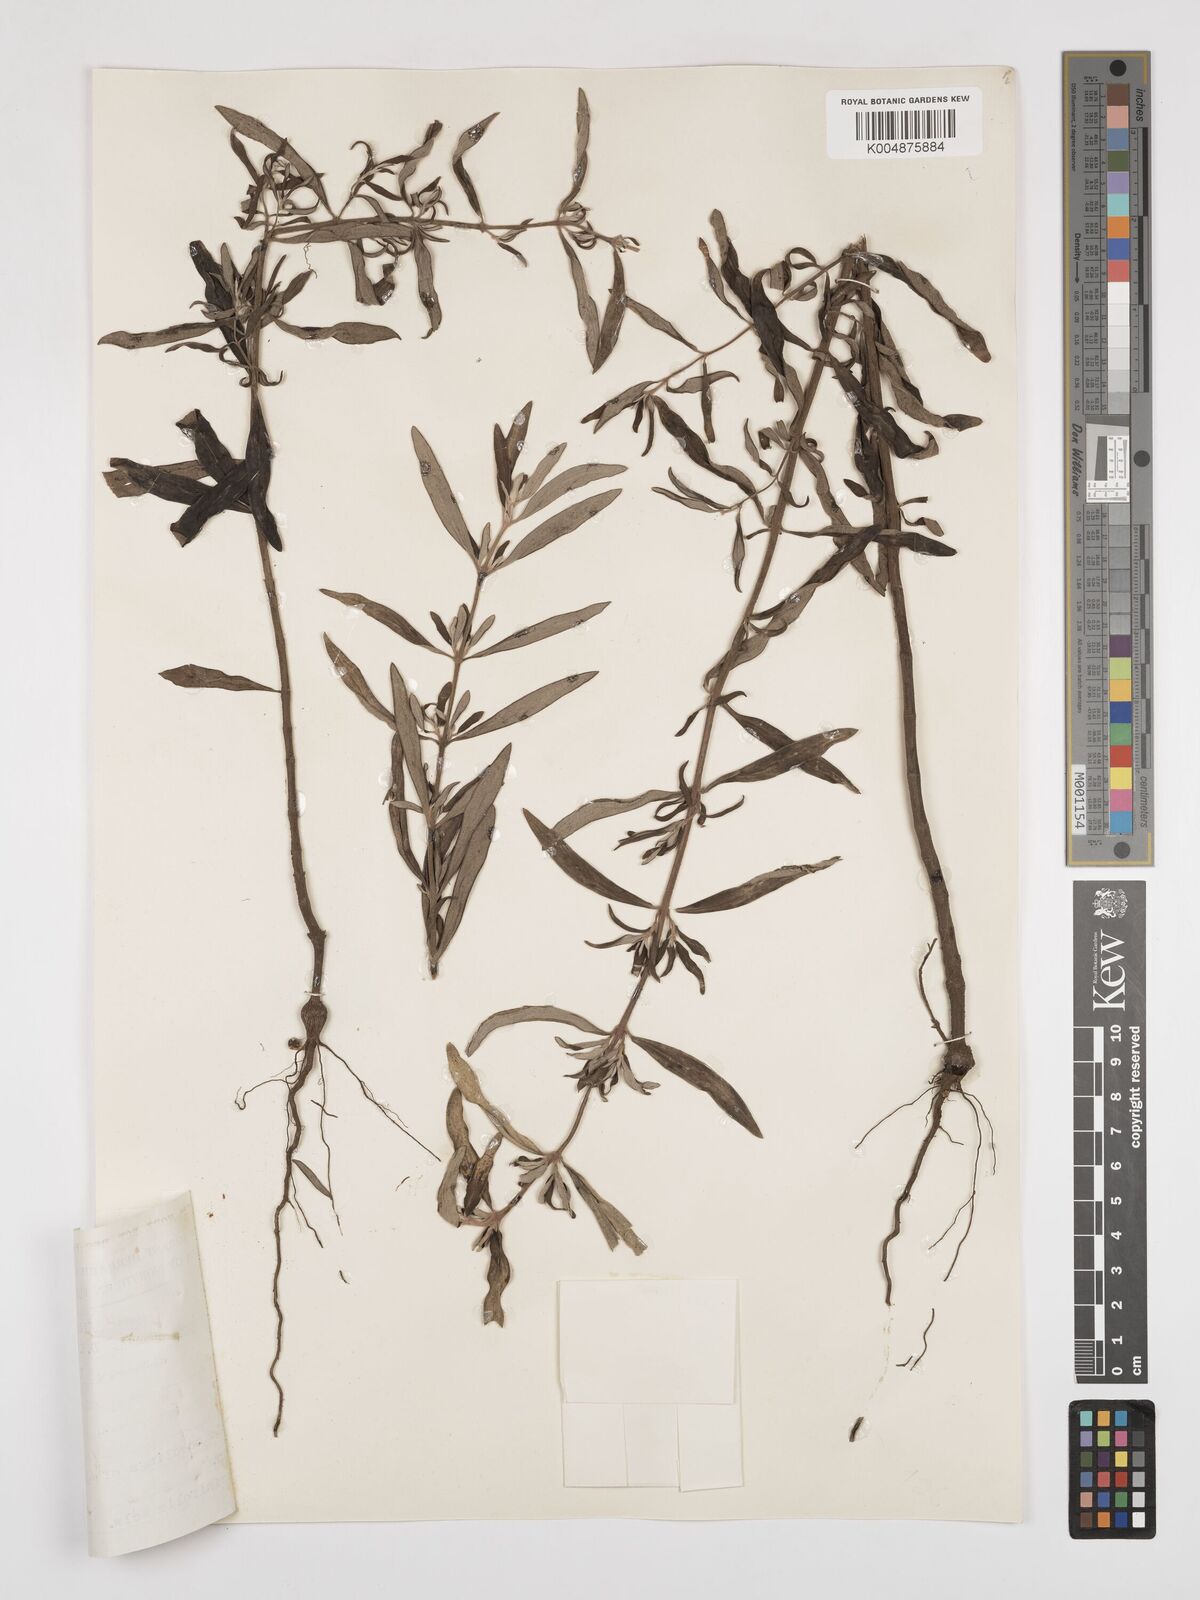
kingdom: Plantae
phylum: Tracheophyta
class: Magnoliopsida
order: Lamiales
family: Lamiaceae
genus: Alvesia
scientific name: Alvesia rosmarinifolia
